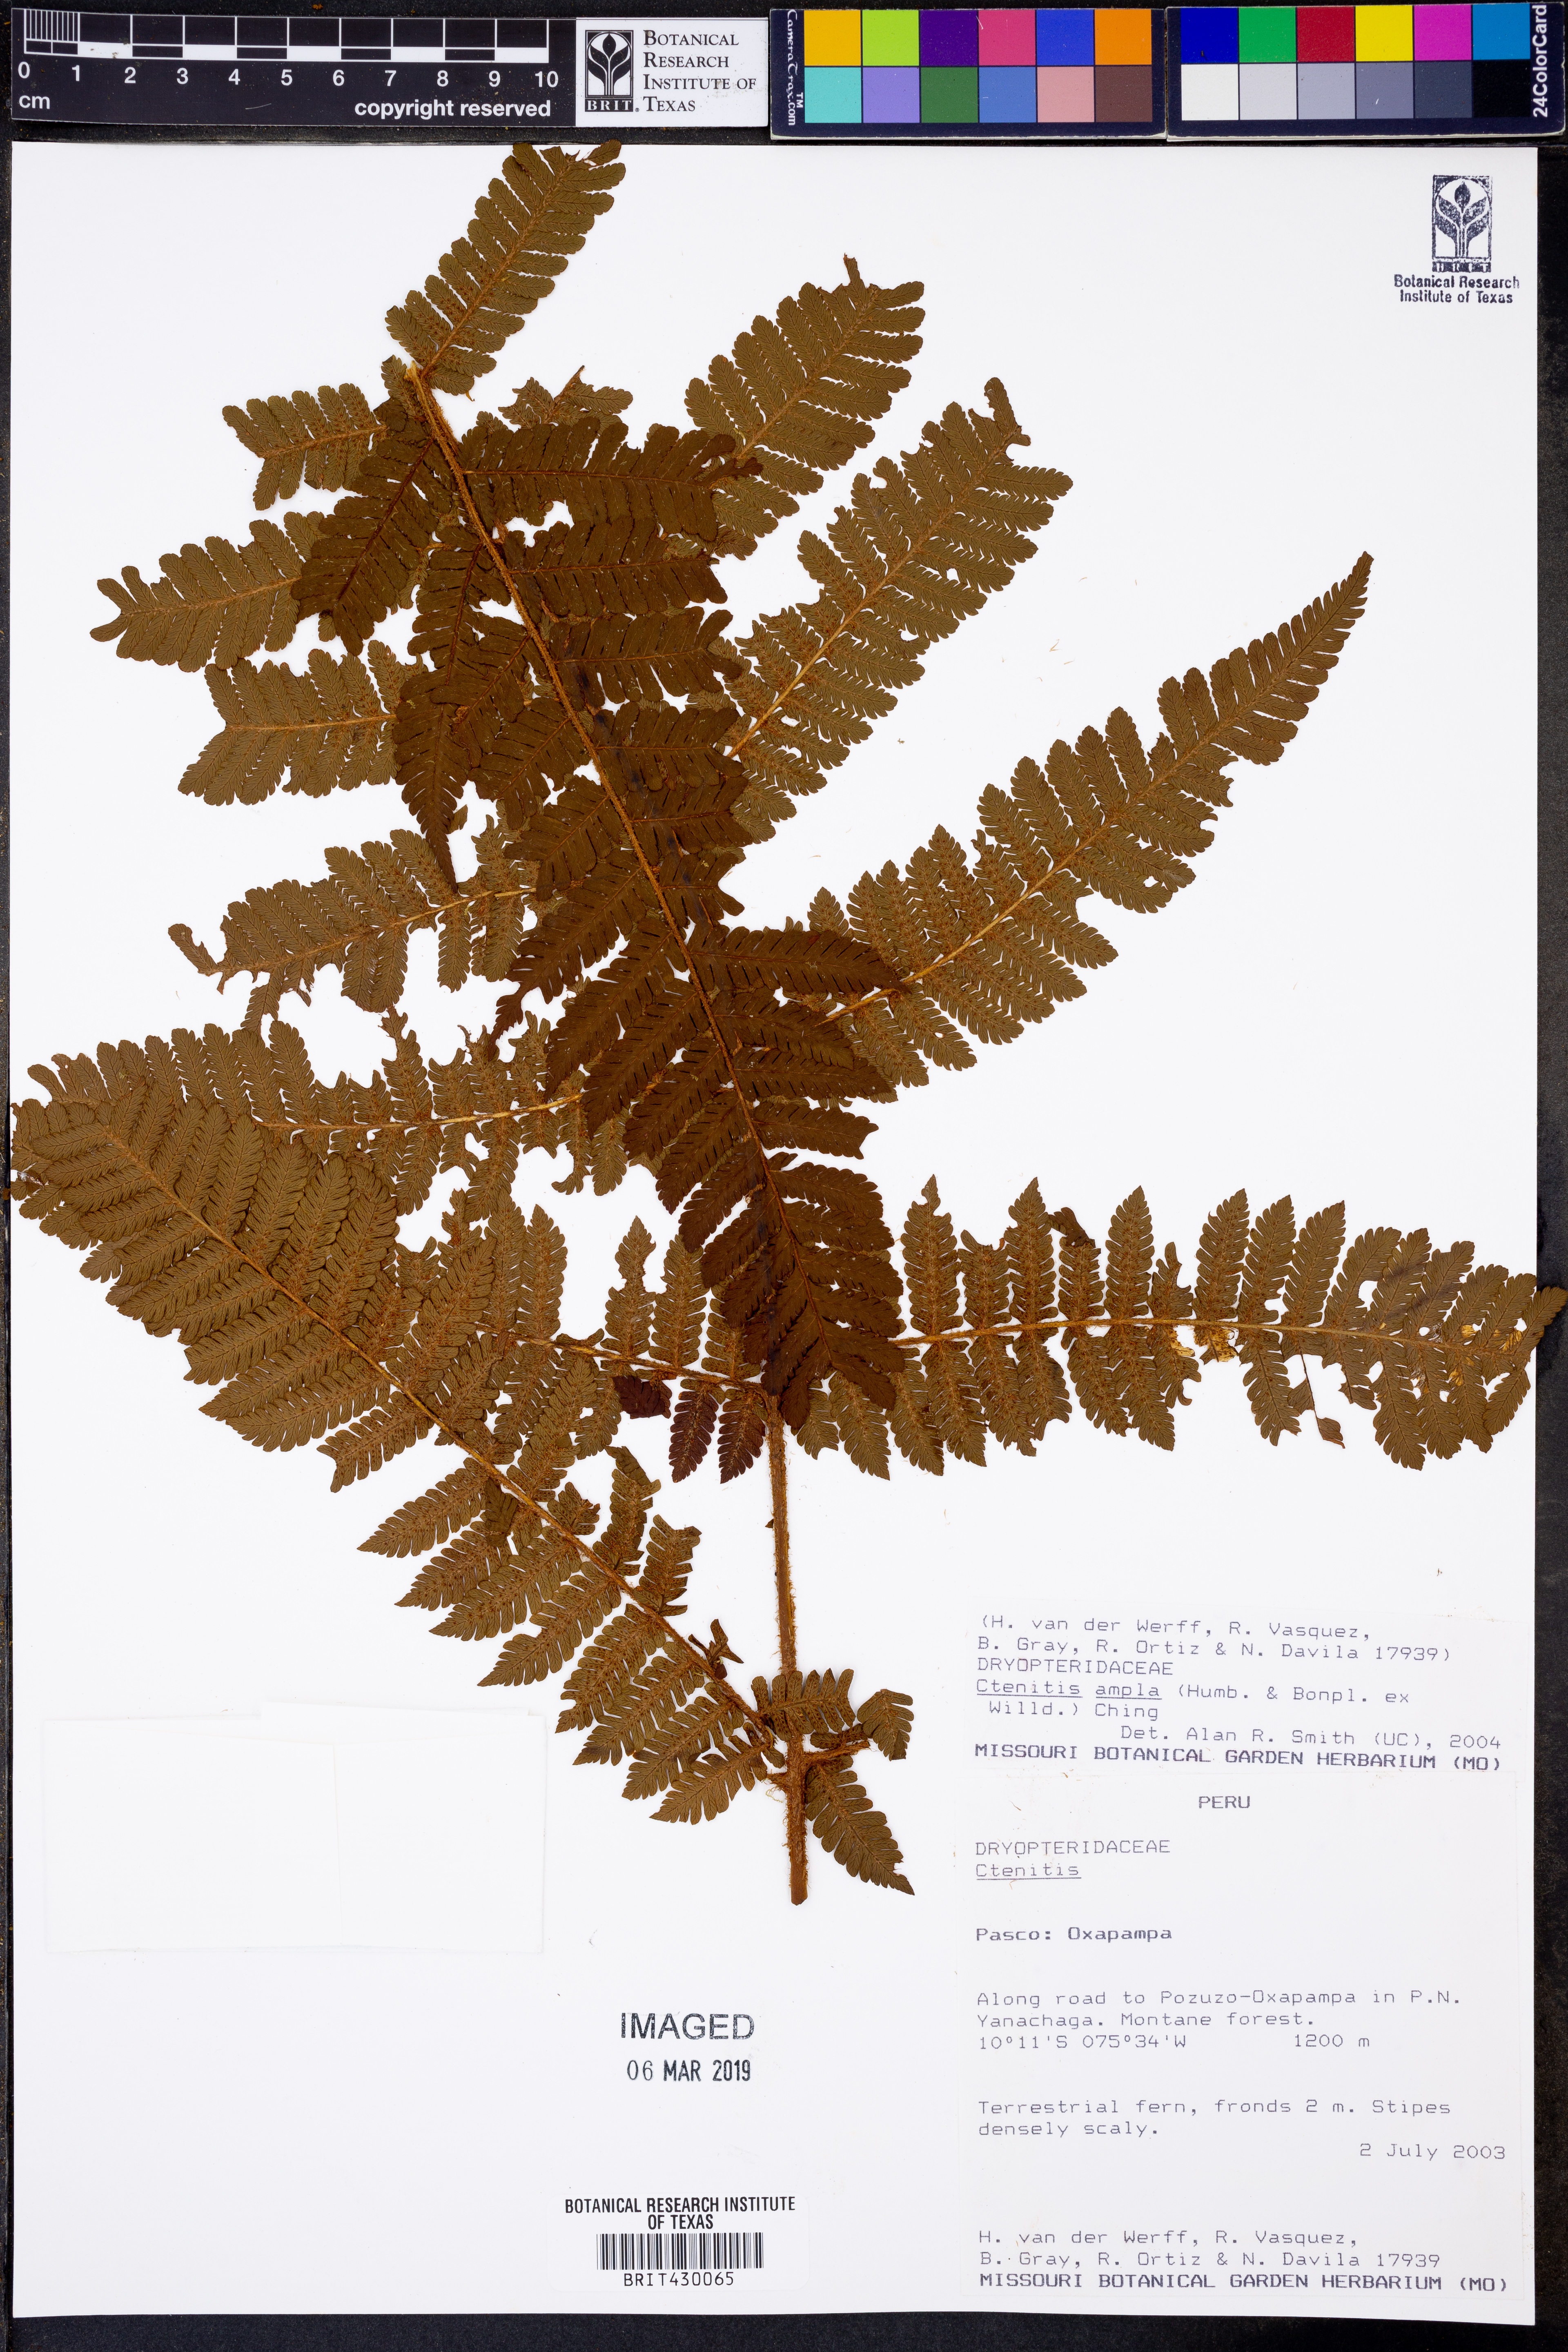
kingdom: Plantae
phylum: Tracheophyta
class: Polypodiopsida
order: Polypodiales
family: Dryopteridaceae
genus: Ctenitis
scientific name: Ctenitis sloanei
